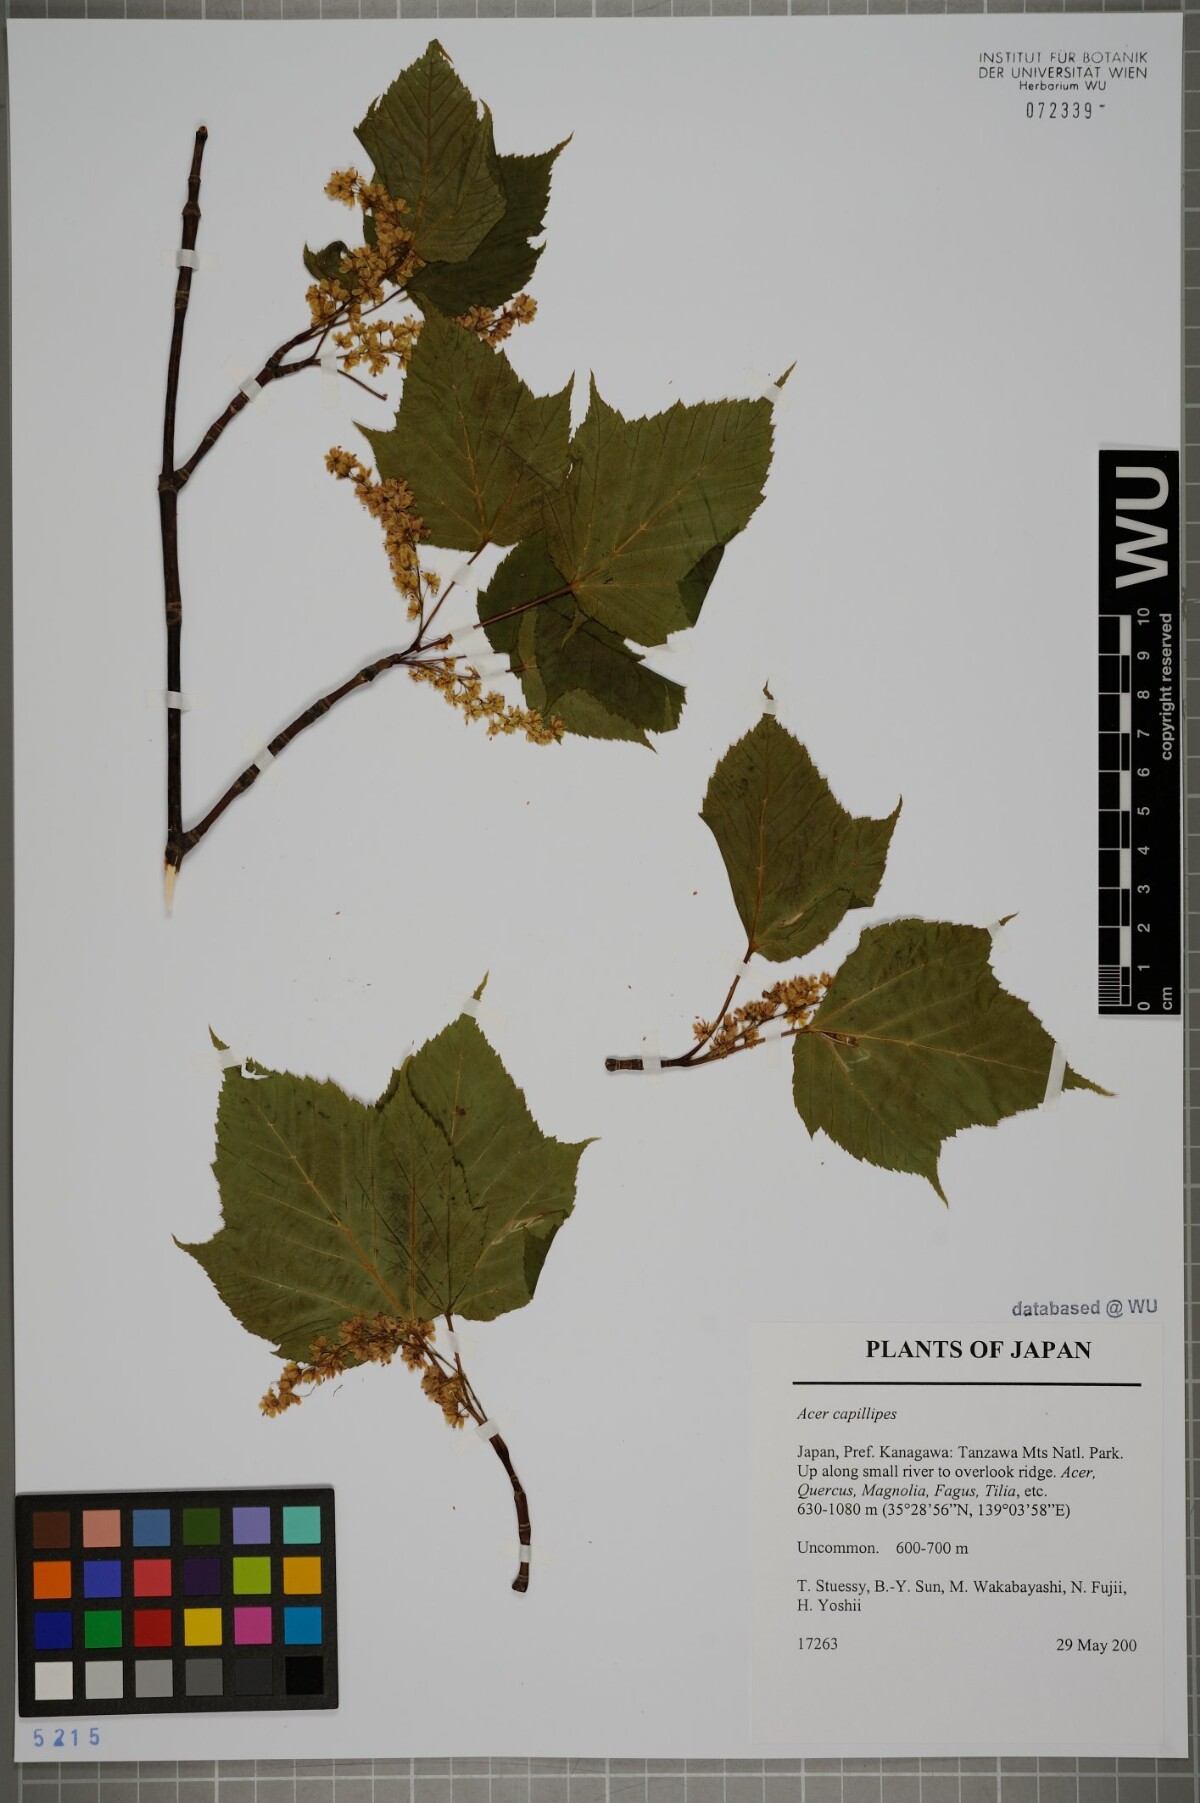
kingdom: Plantae
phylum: Tracheophyta
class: Magnoliopsida
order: Sapindales
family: Sapindaceae
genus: Acer
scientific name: Acer capillipes
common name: Kyushu maple
